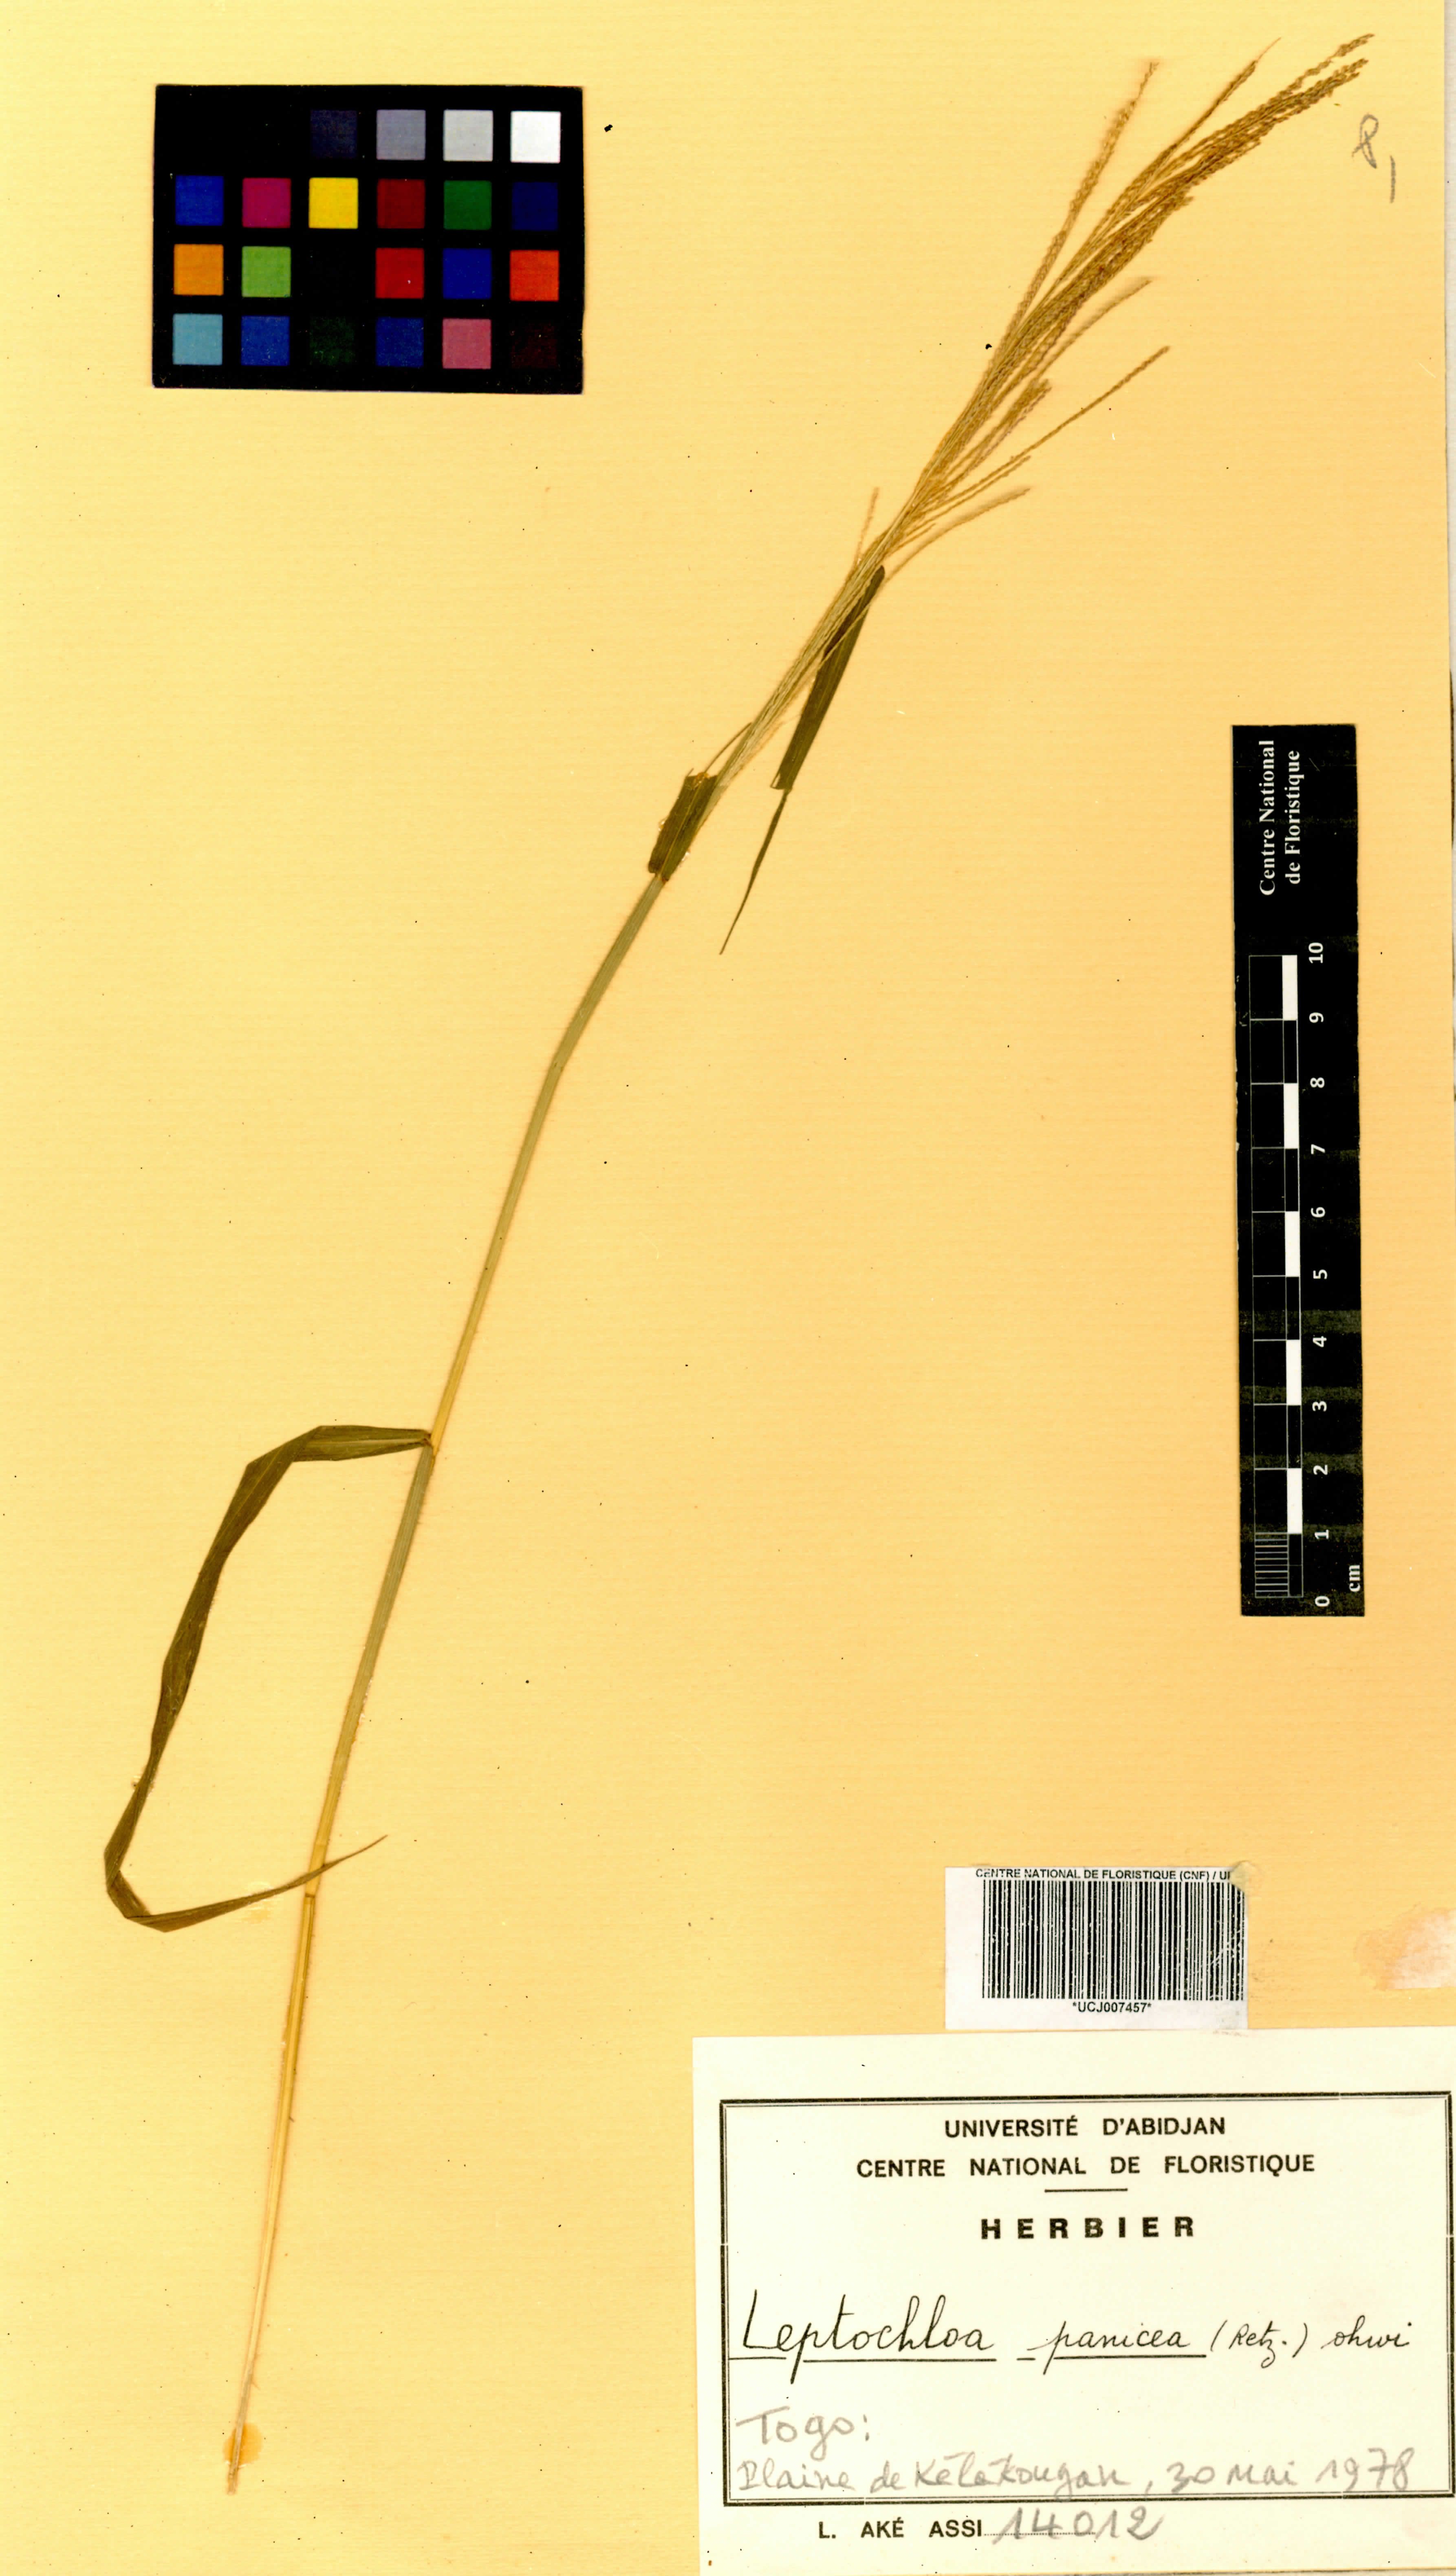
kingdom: Plantae
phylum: Tracheophyta
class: Liliopsida
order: Poales
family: Poaceae
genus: Leptochloa
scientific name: Leptochloa panicea
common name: Mucronate sprangletop
